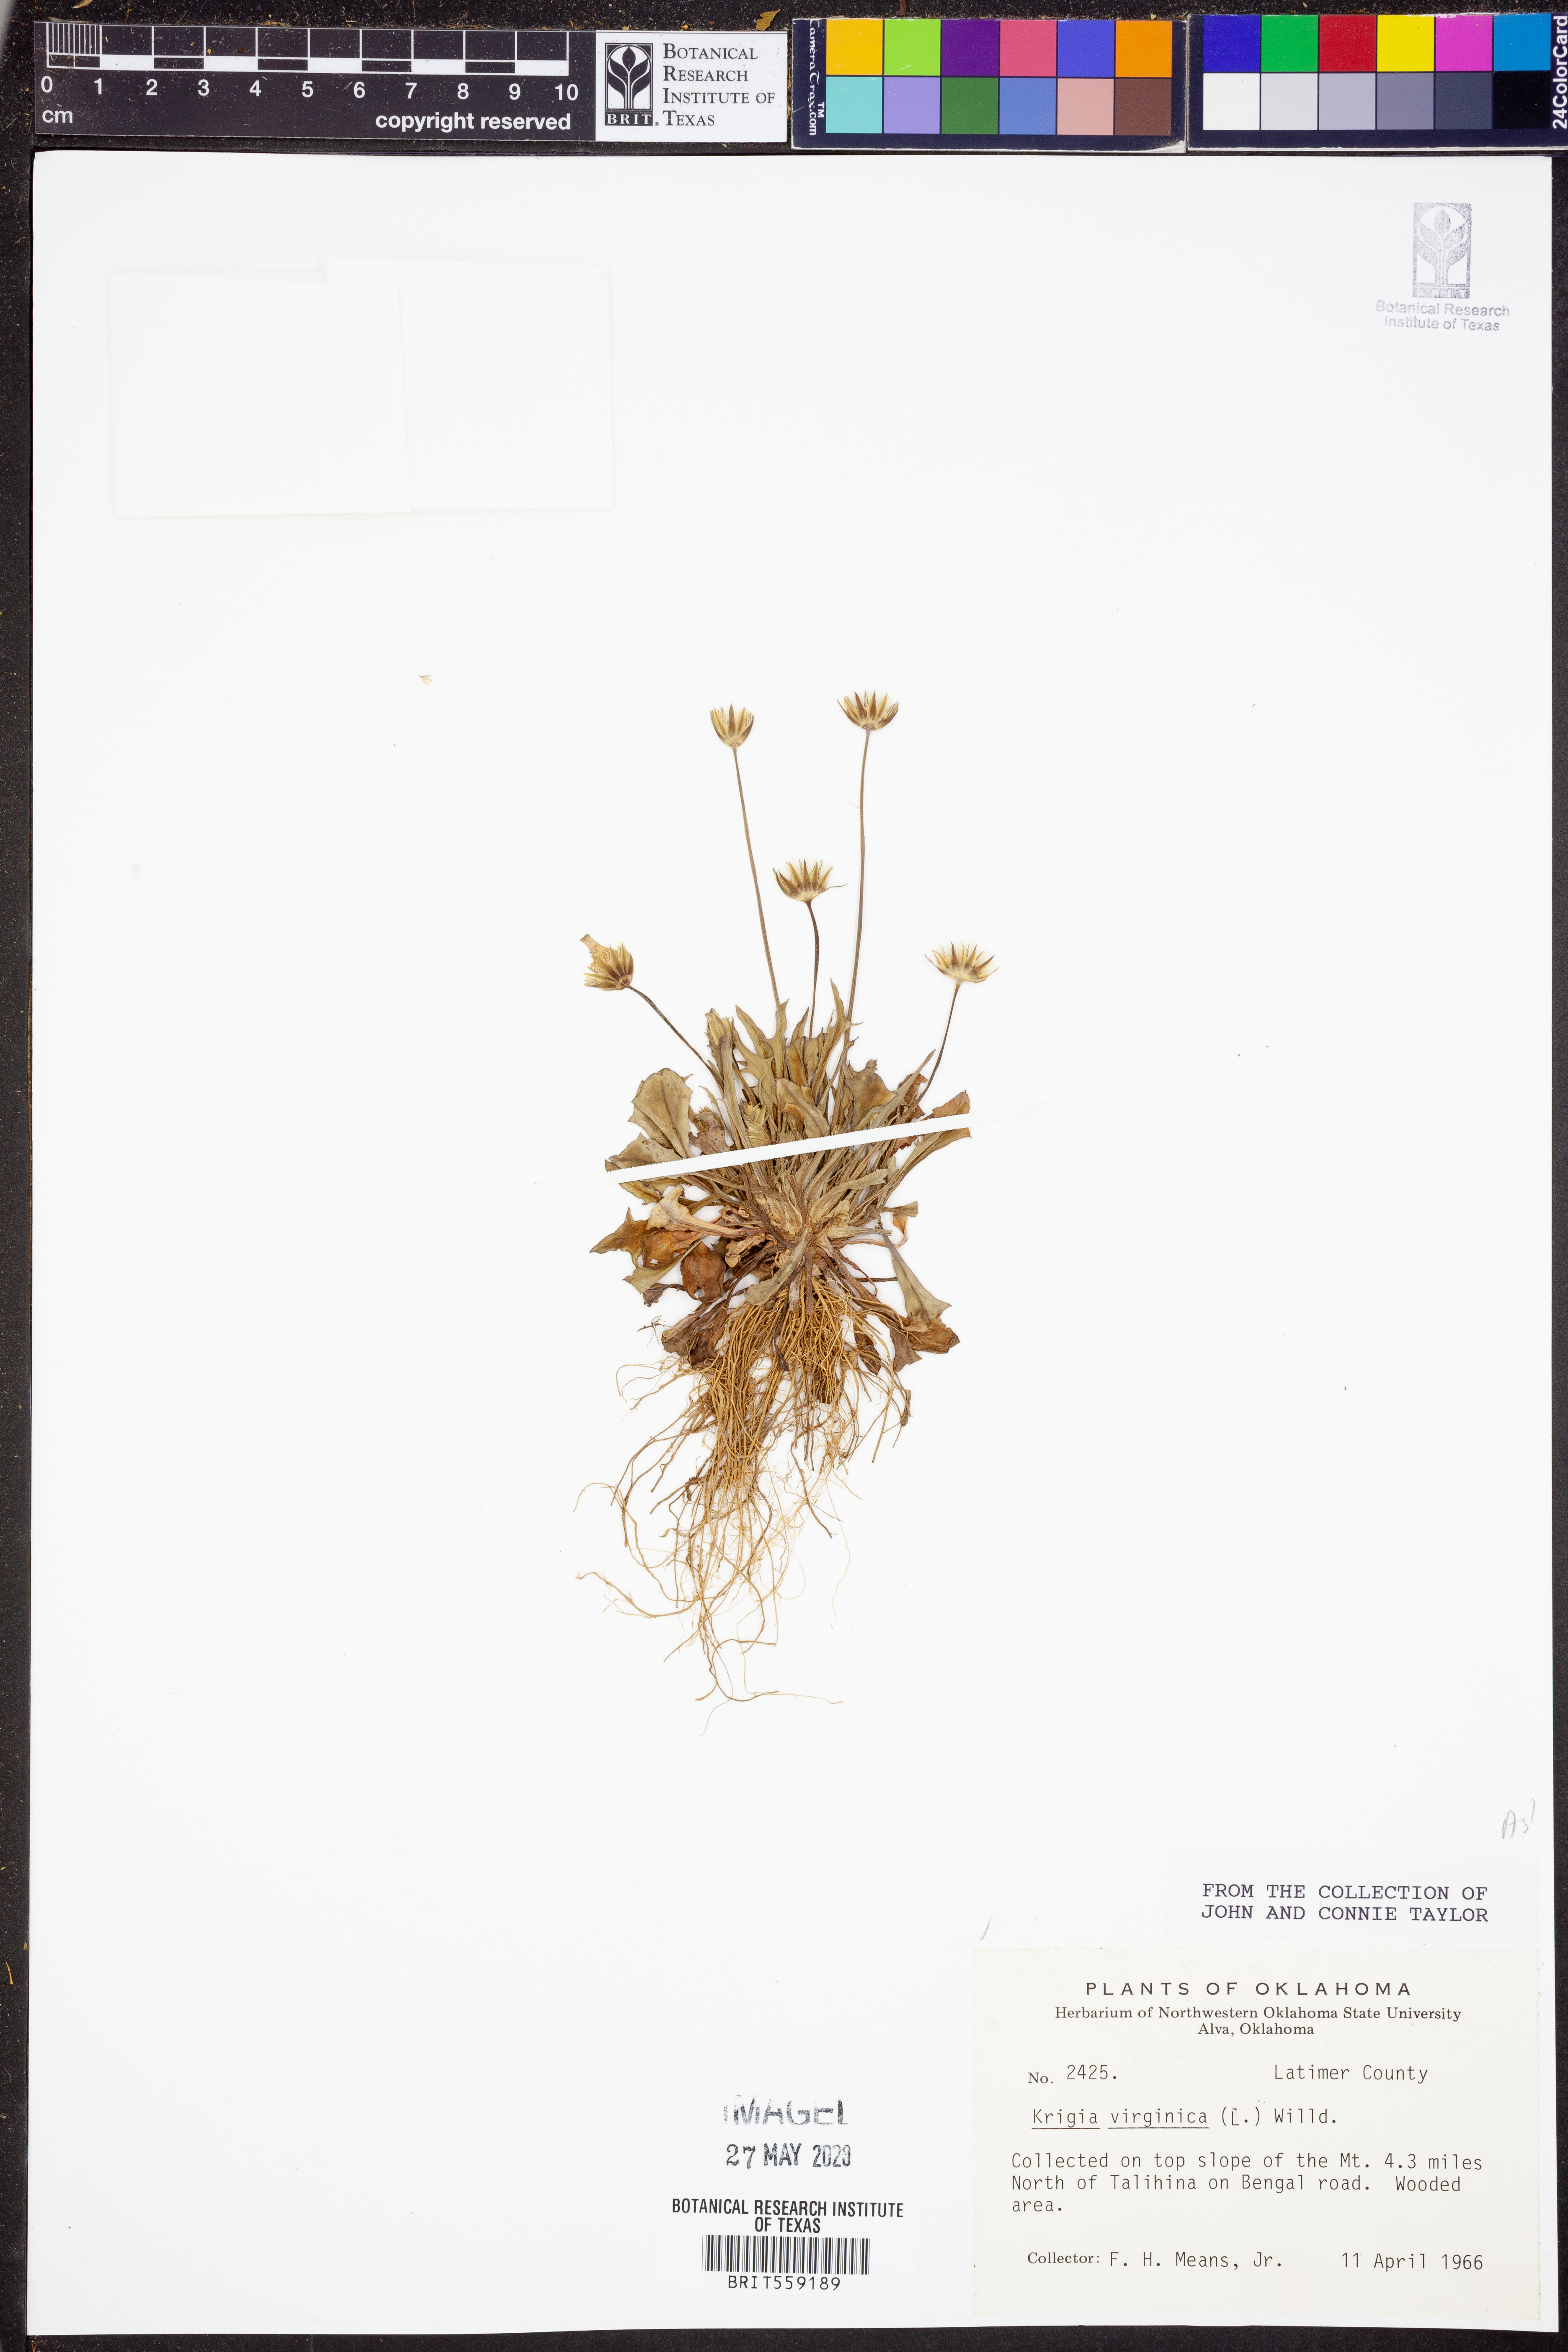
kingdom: Plantae
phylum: Tracheophyta
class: Magnoliopsida
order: Asterales
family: Asteraceae
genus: Krigia
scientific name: Krigia virginica
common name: Virginia dwarf-dandelion
